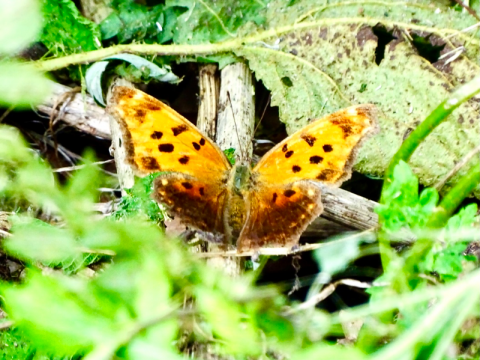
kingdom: Animalia
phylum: Arthropoda
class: Insecta
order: Lepidoptera
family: Nymphalidae
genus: Polygonia
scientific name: Polygonia comma
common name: Eastern Comma
